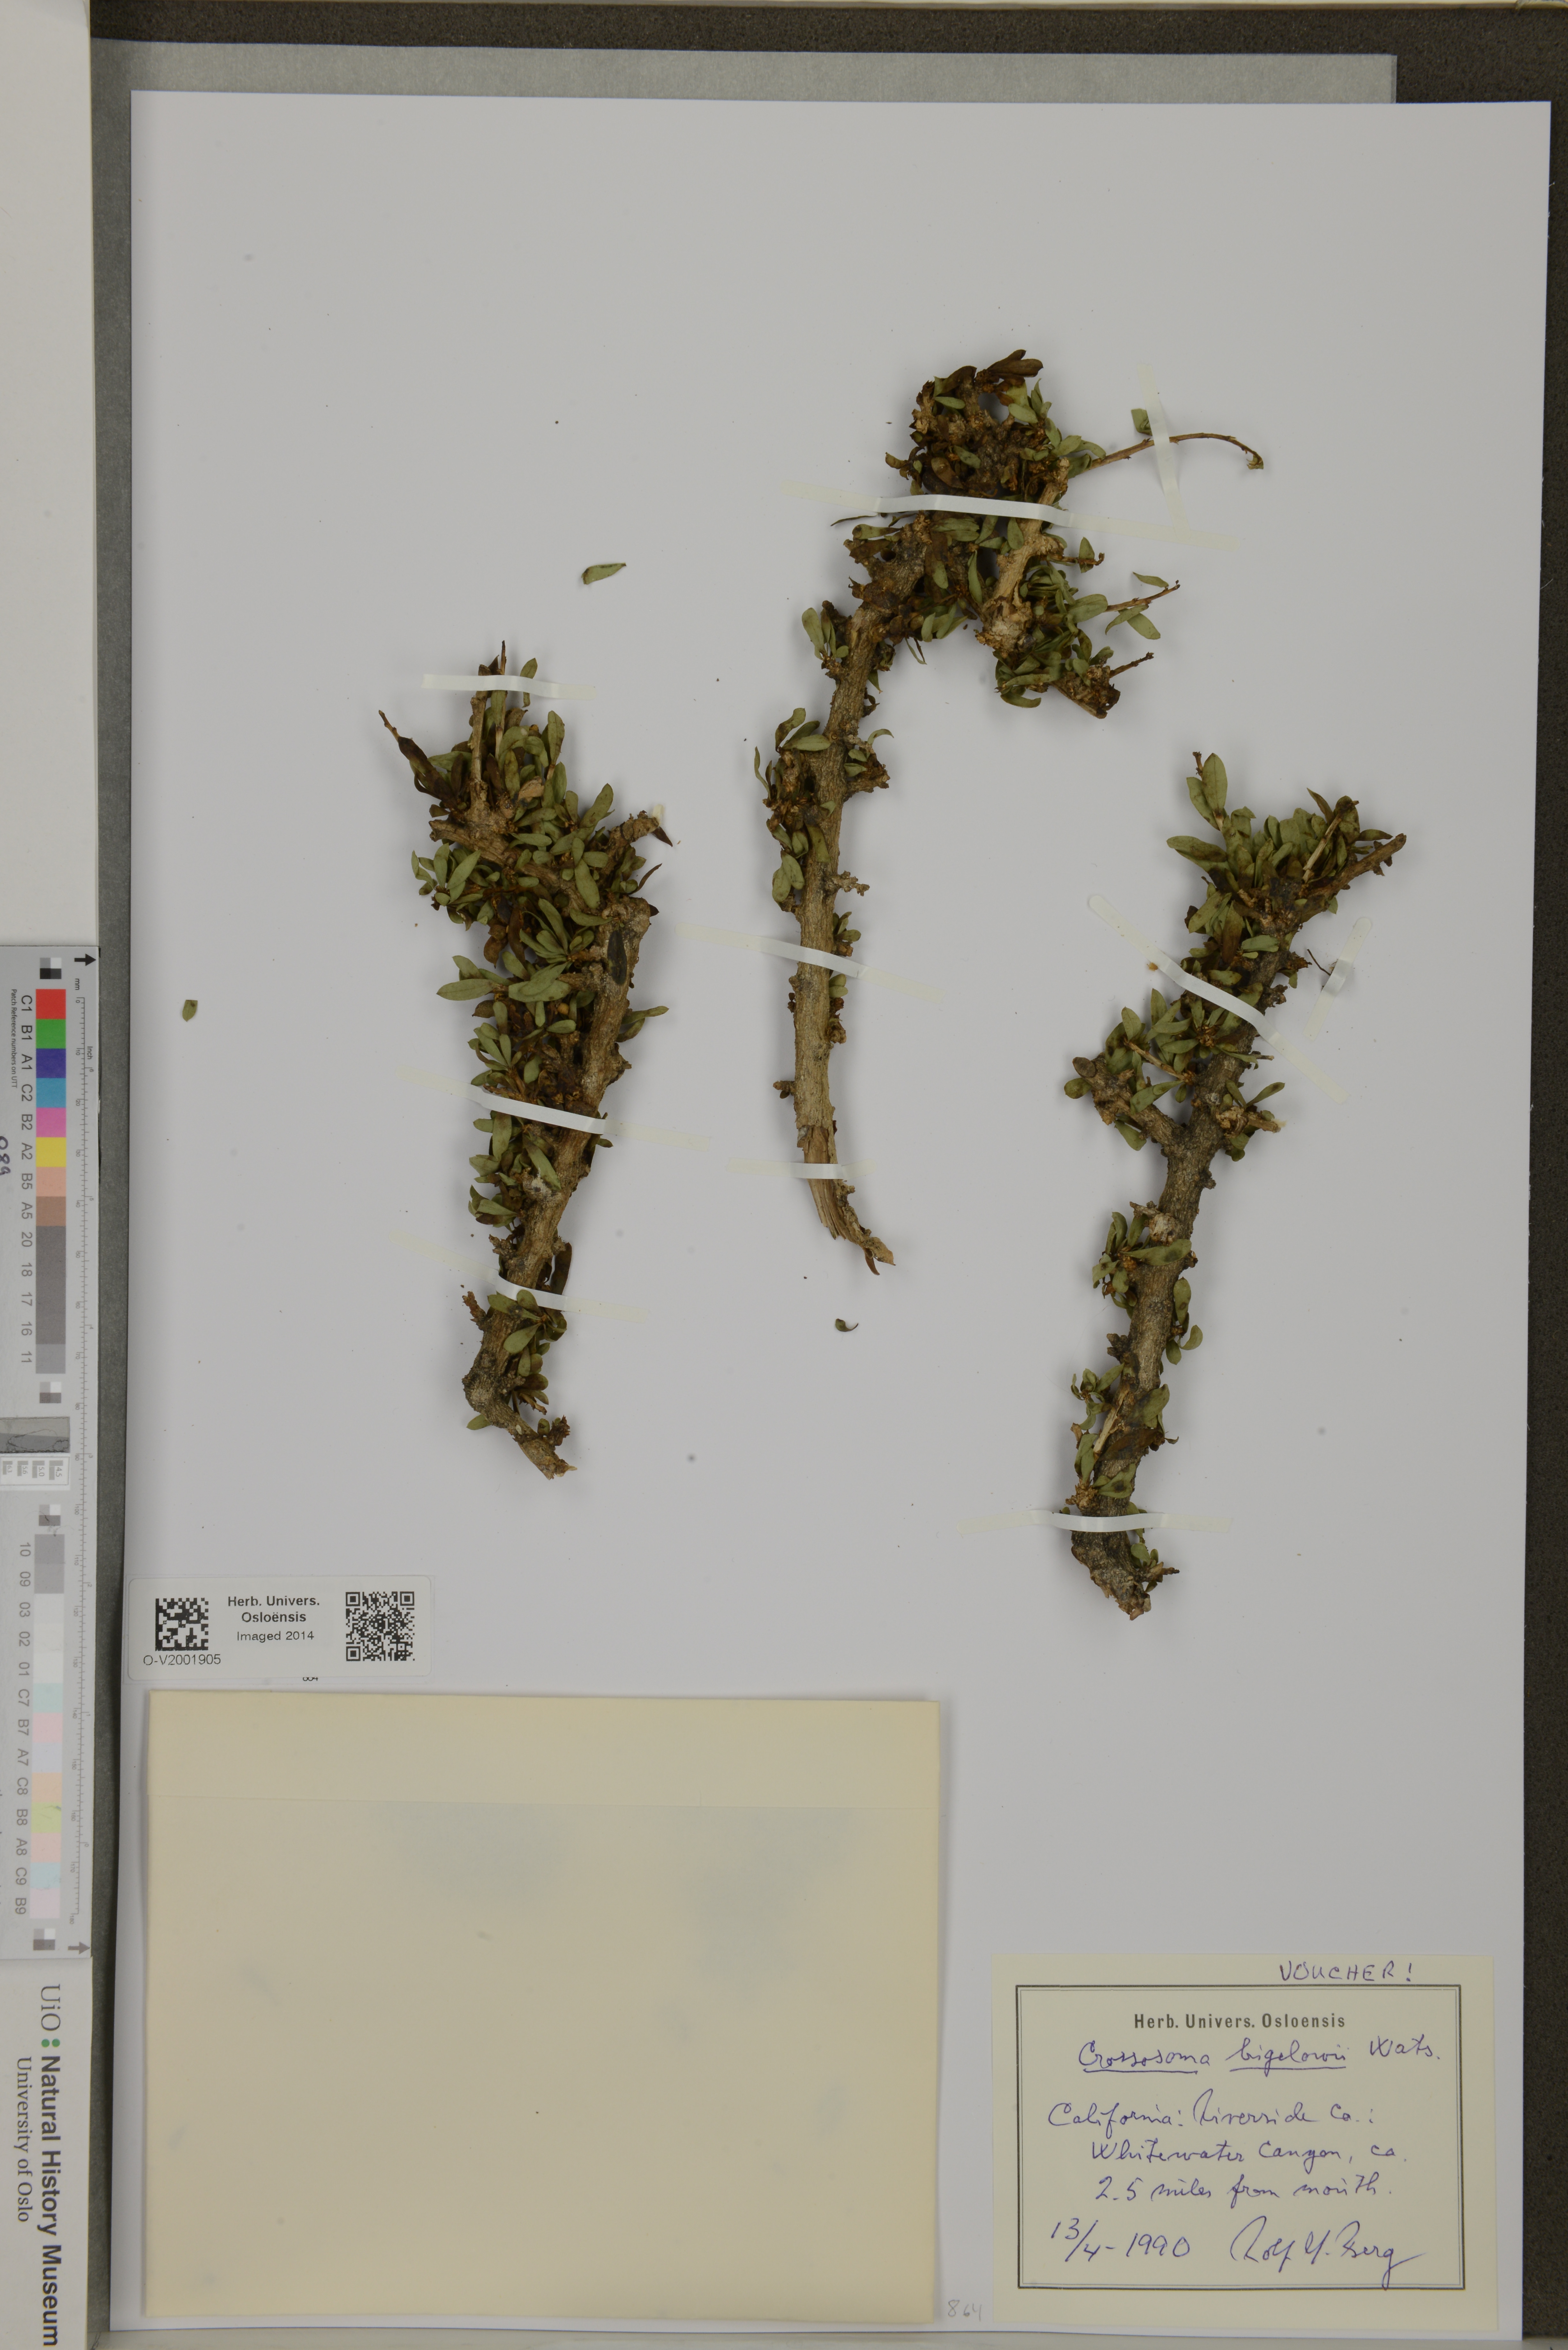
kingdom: Plantae
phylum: Tracheophyta
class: Magnoliopsida
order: Crossosomatales
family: Crossosomataceae
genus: Crossosoma
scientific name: Crossosoma bigelovii
